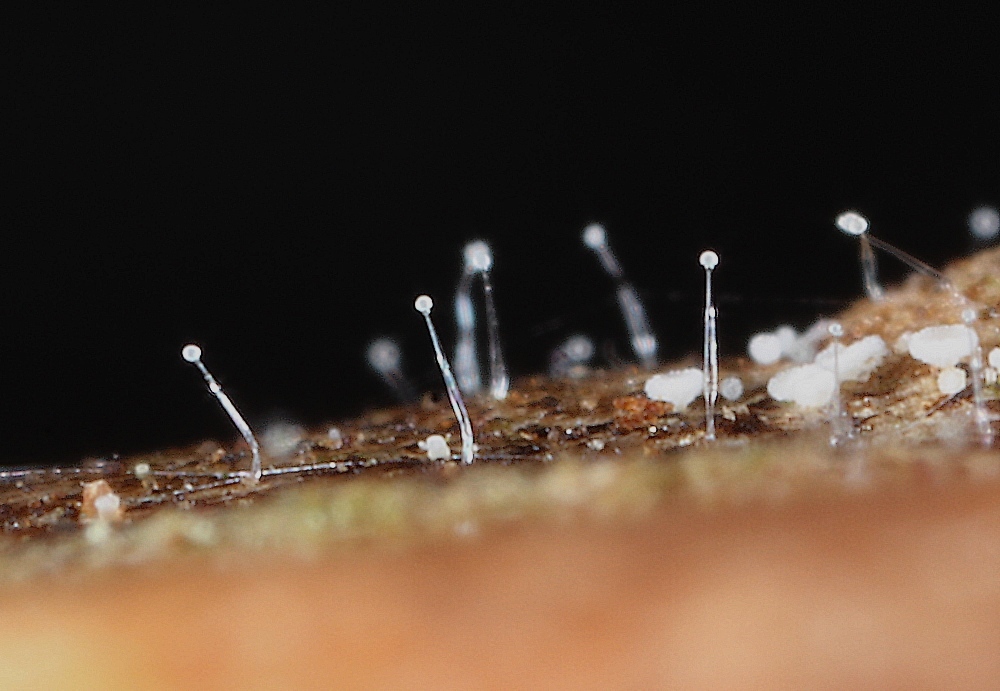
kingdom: Fungi
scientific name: Fungi
